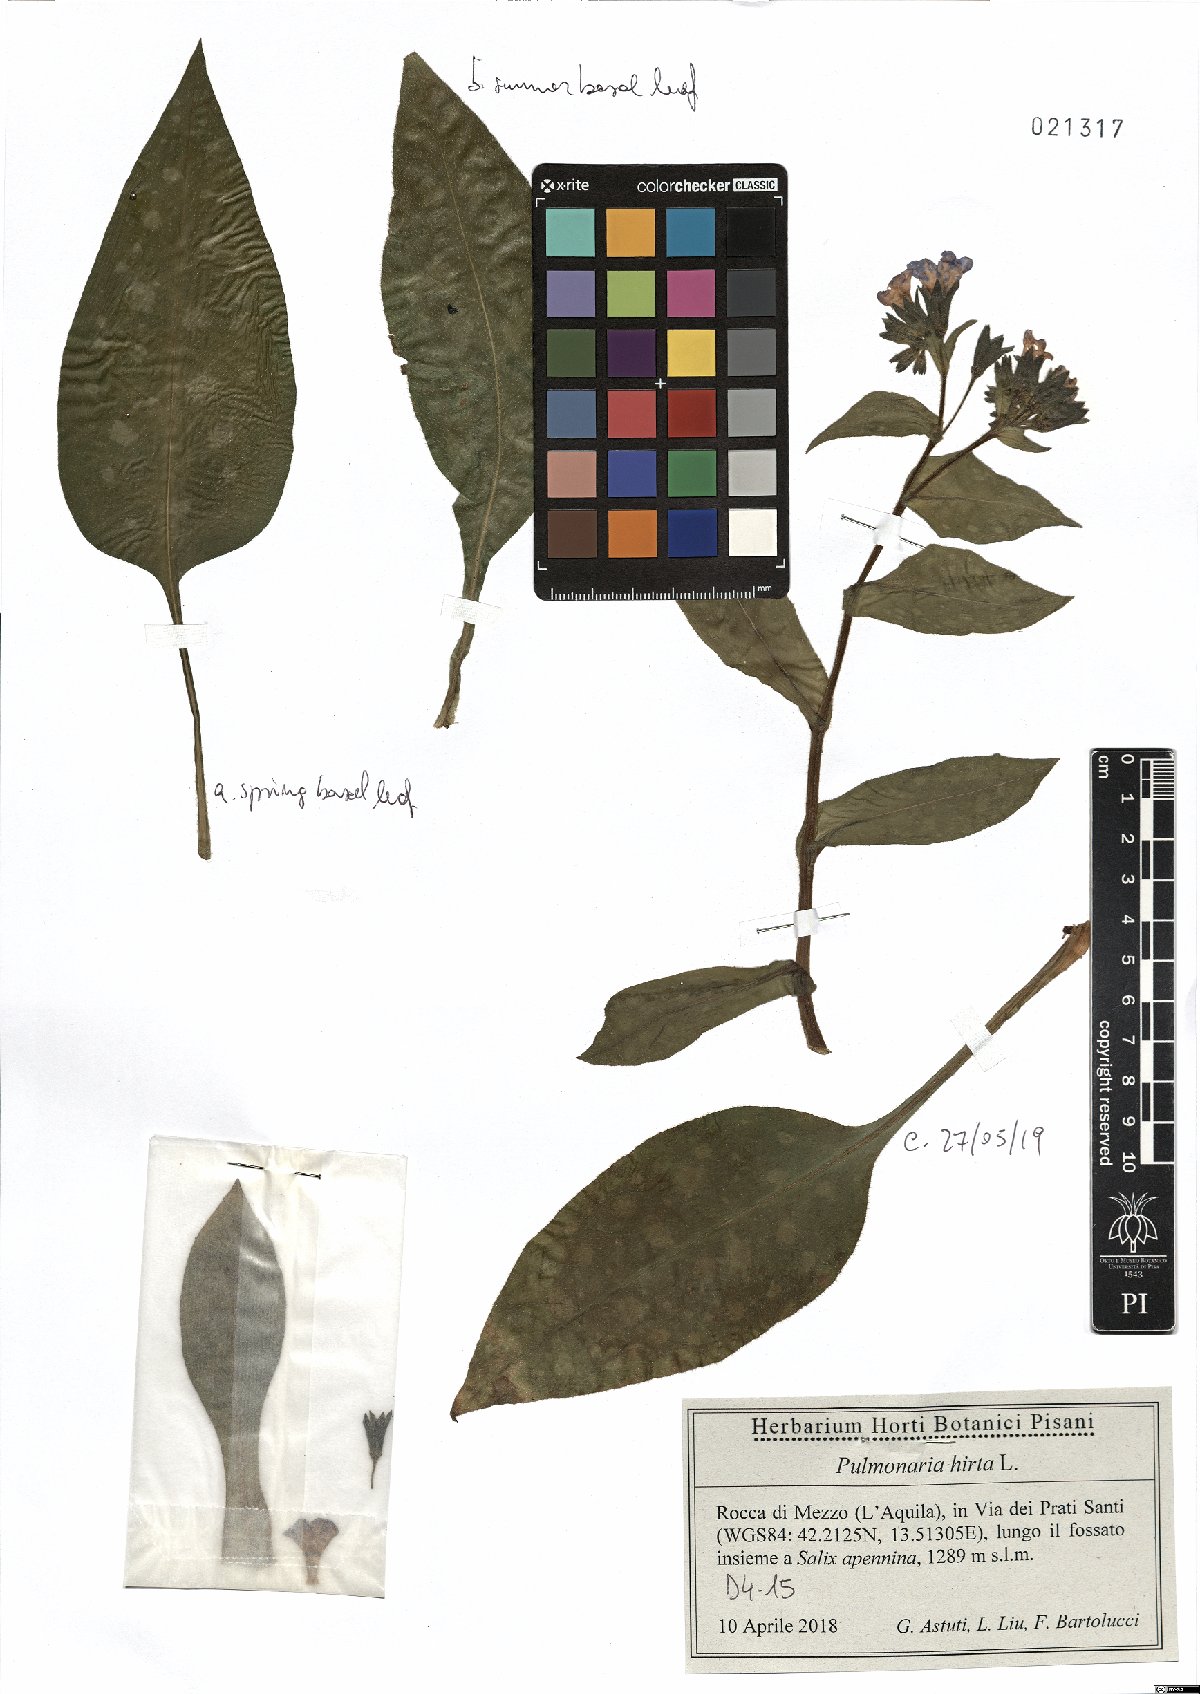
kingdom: Plantae
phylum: Tracheophyta
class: Magnoliopsida
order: Boraginales
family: Boraginaceae
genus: Pulmonaria
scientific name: Pulmonaria hirta
